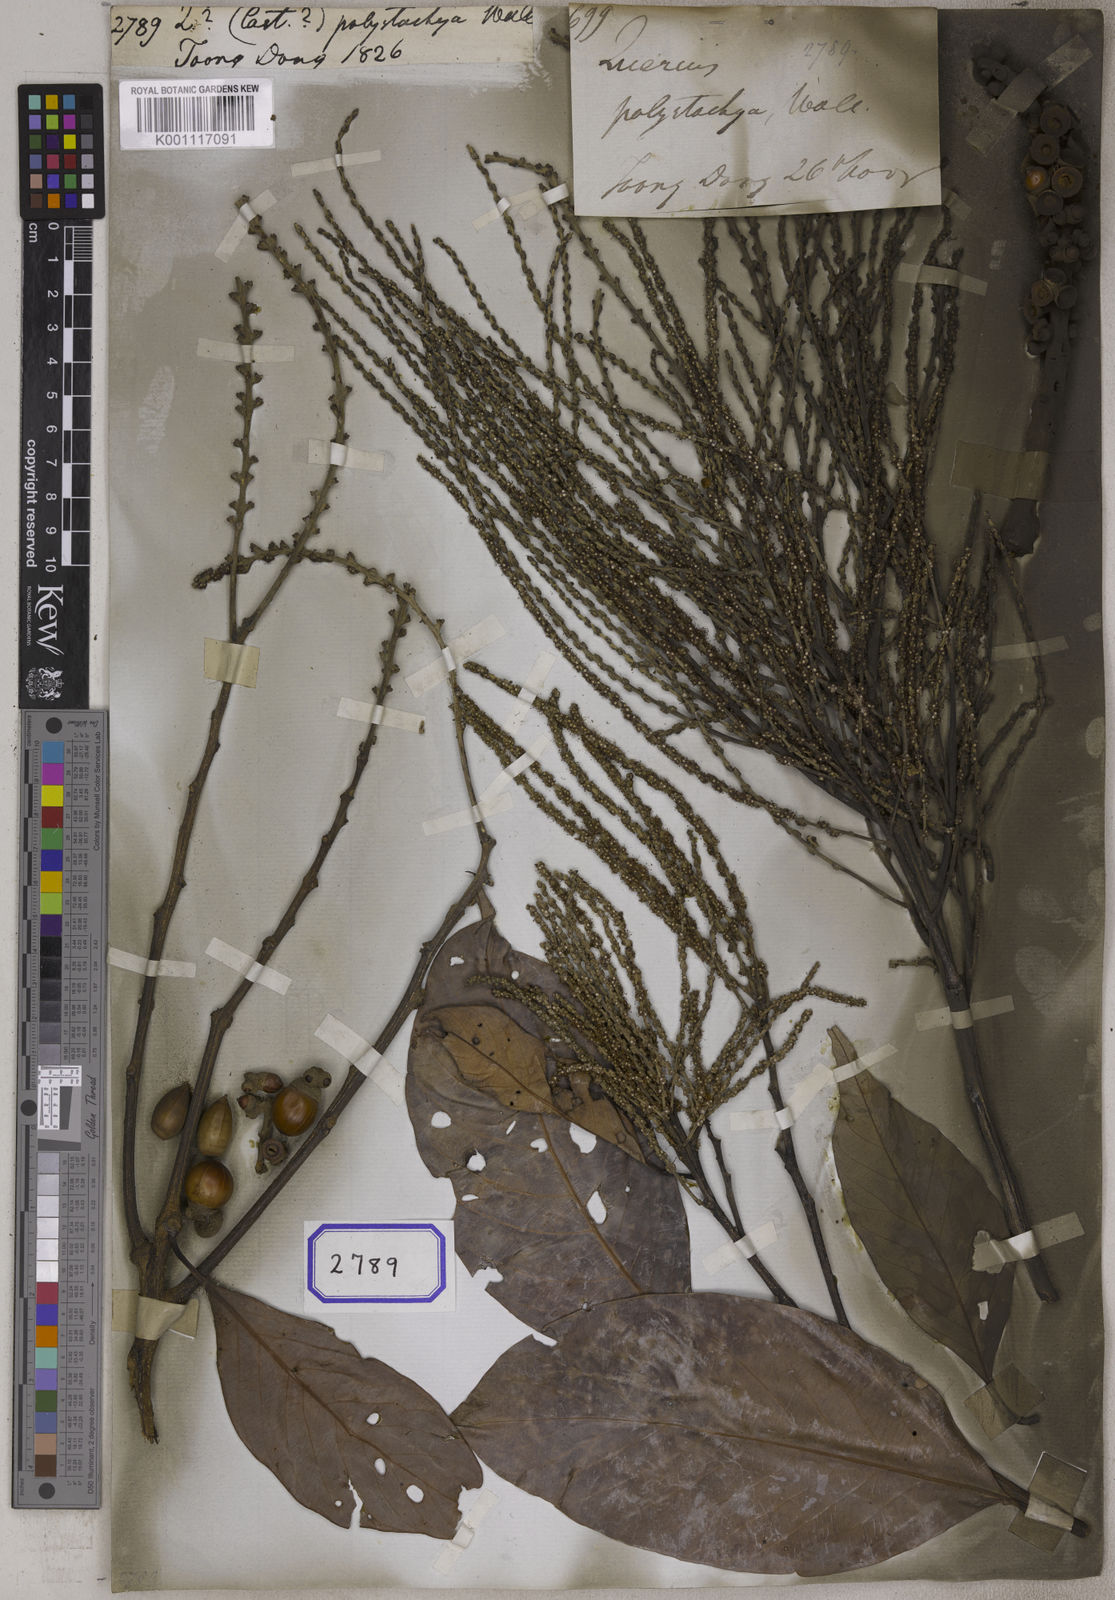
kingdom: Plantae
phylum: Tracheophyta
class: Magnoliopsida
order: Fagales
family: Fagaceae
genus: Quercus
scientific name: Quercus
